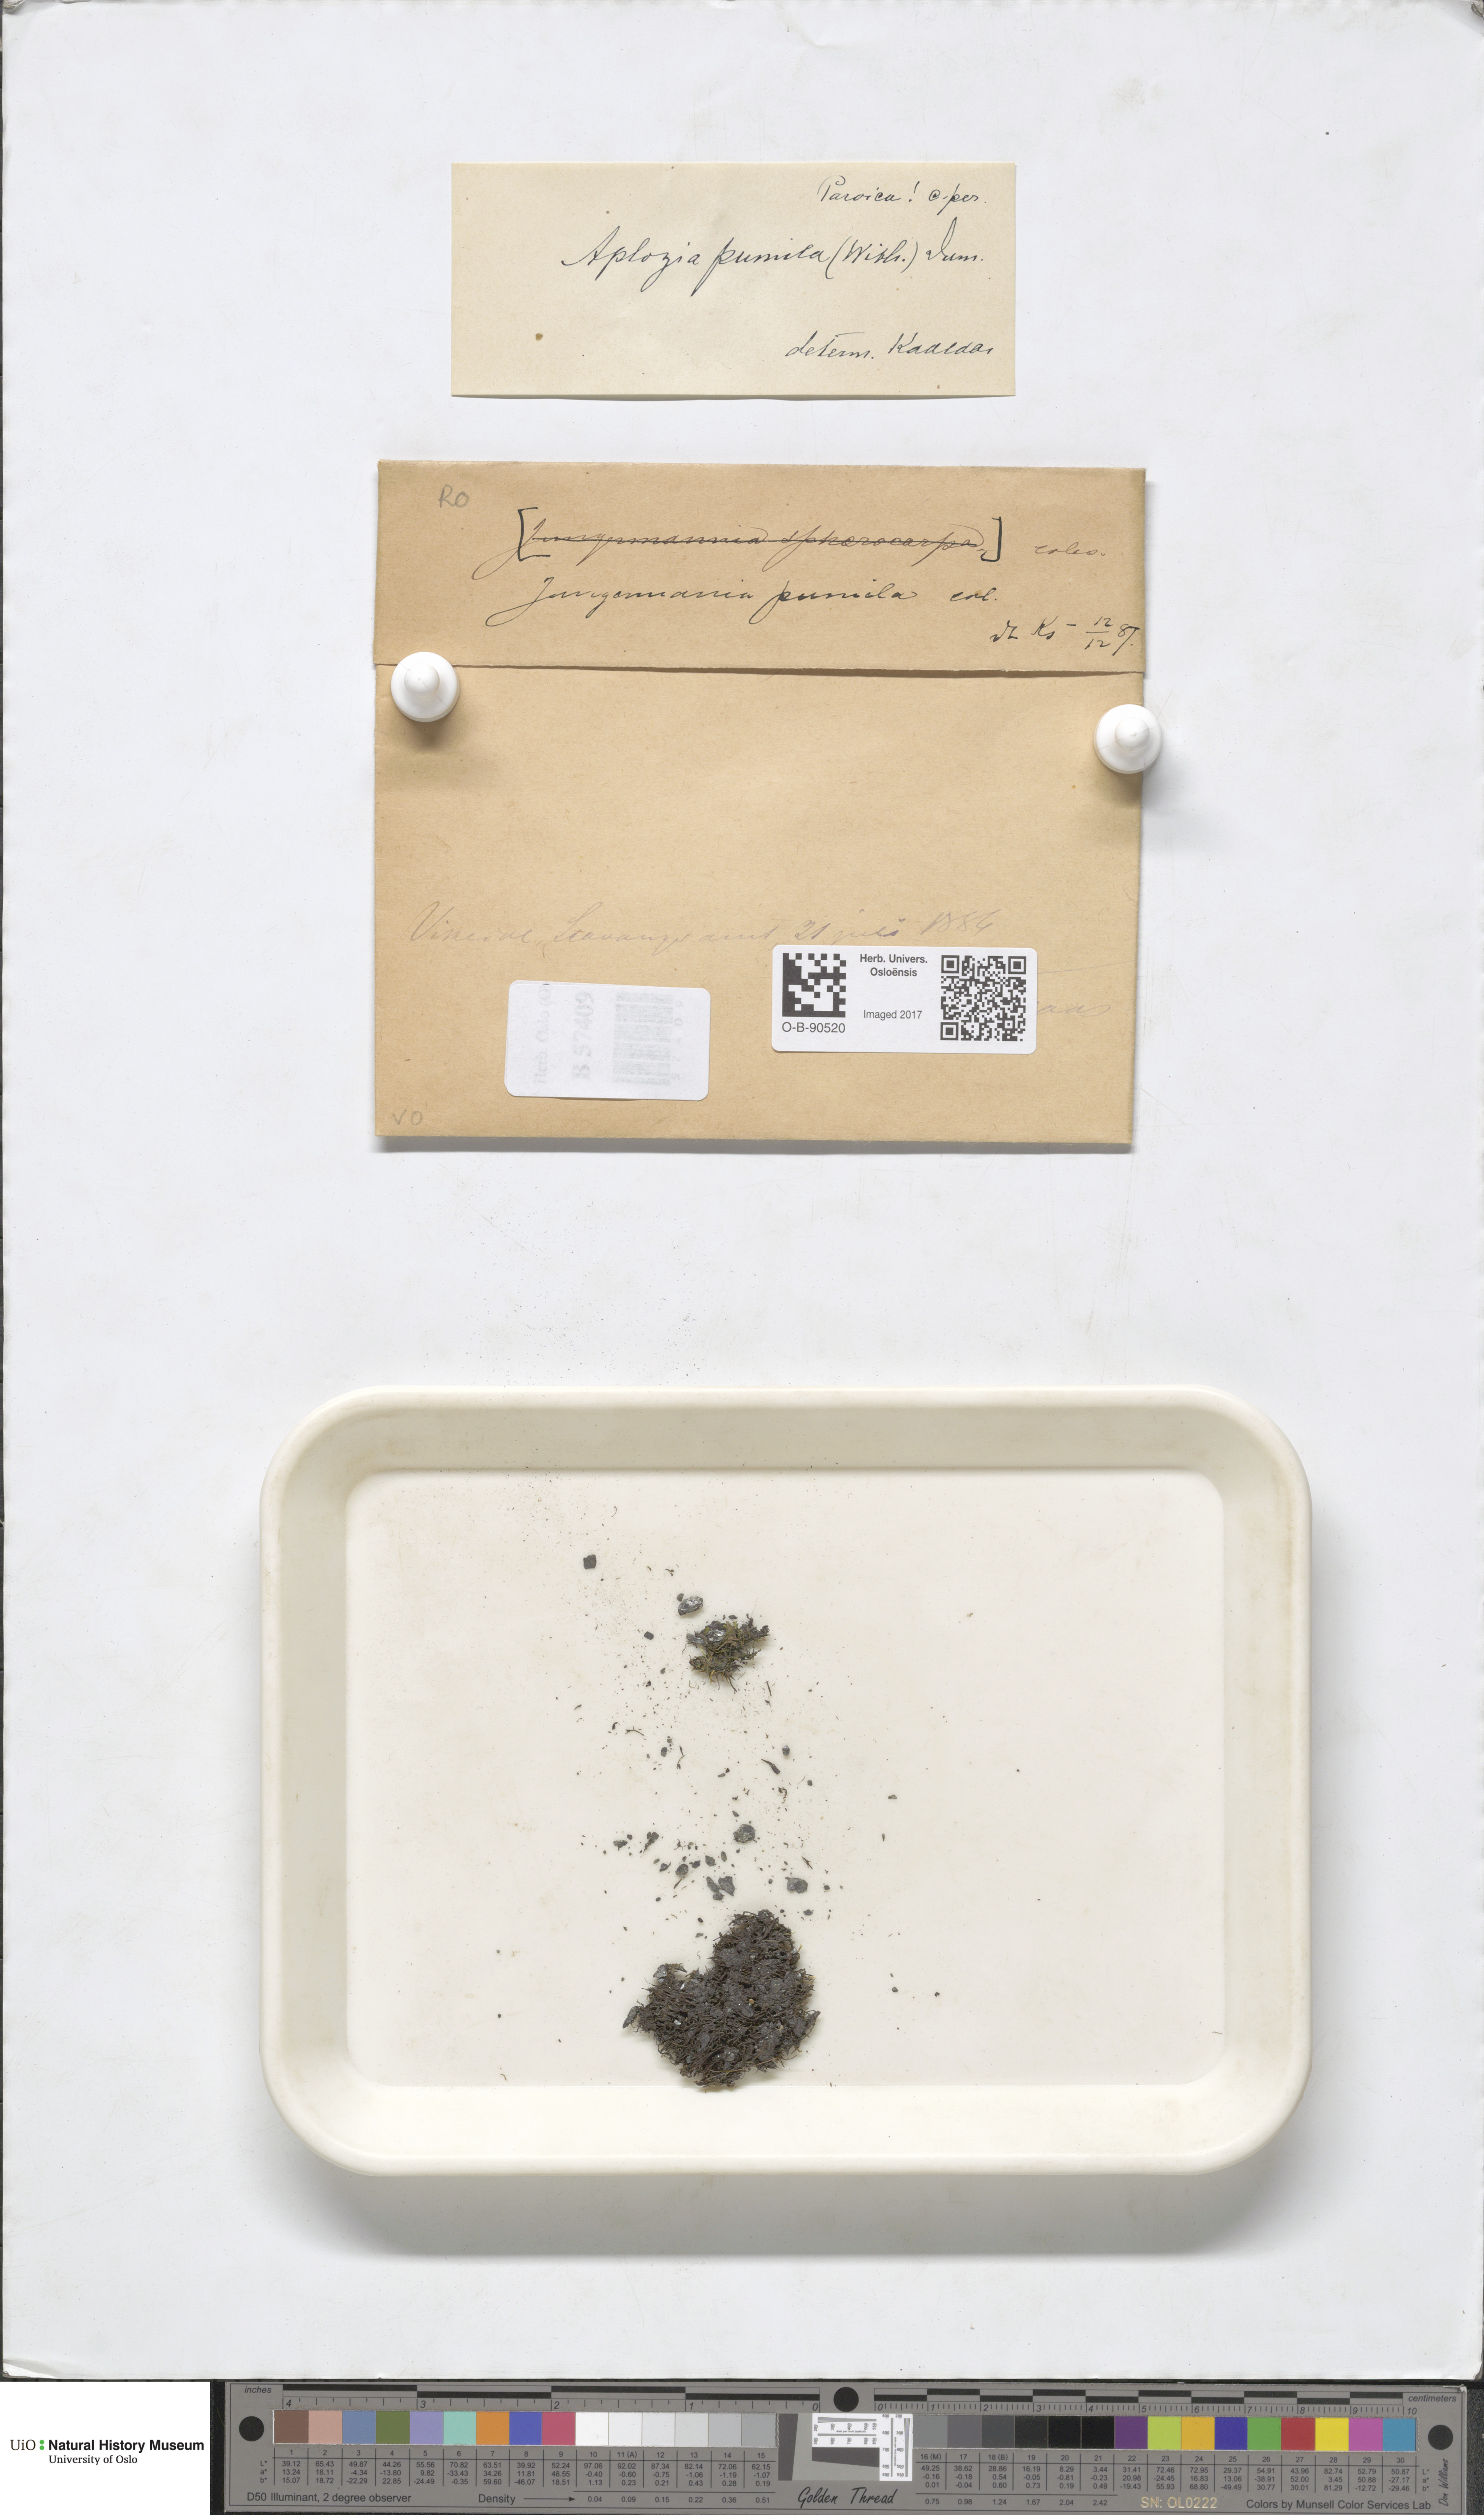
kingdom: Plantae
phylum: Marchantiophyta
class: Jungermanniopsida
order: Jungermanniales
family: Jungermanniaceae
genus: Jungermannia
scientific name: Jungermannia pumila
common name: Dwarf flapwort
